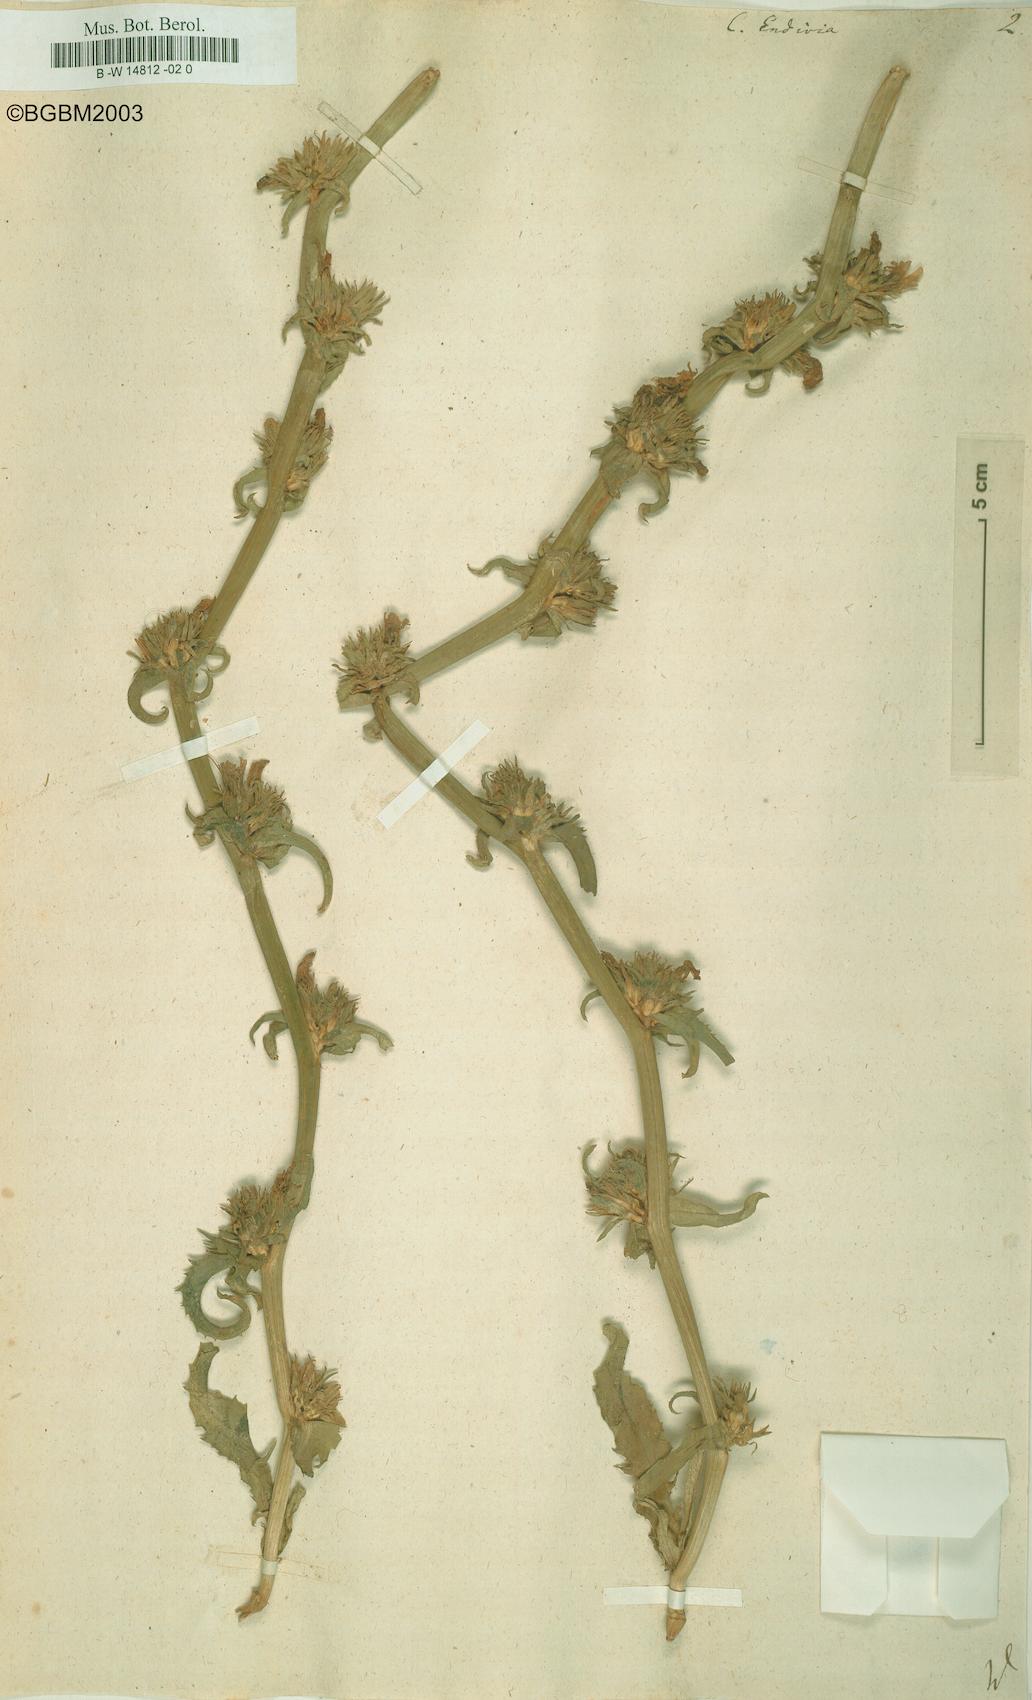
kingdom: Plantae
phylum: Tracheophyta
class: Magnoliopsida
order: Asterales
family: Asteraceae
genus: Cichorium
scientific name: Cichorium endivia
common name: Endive
